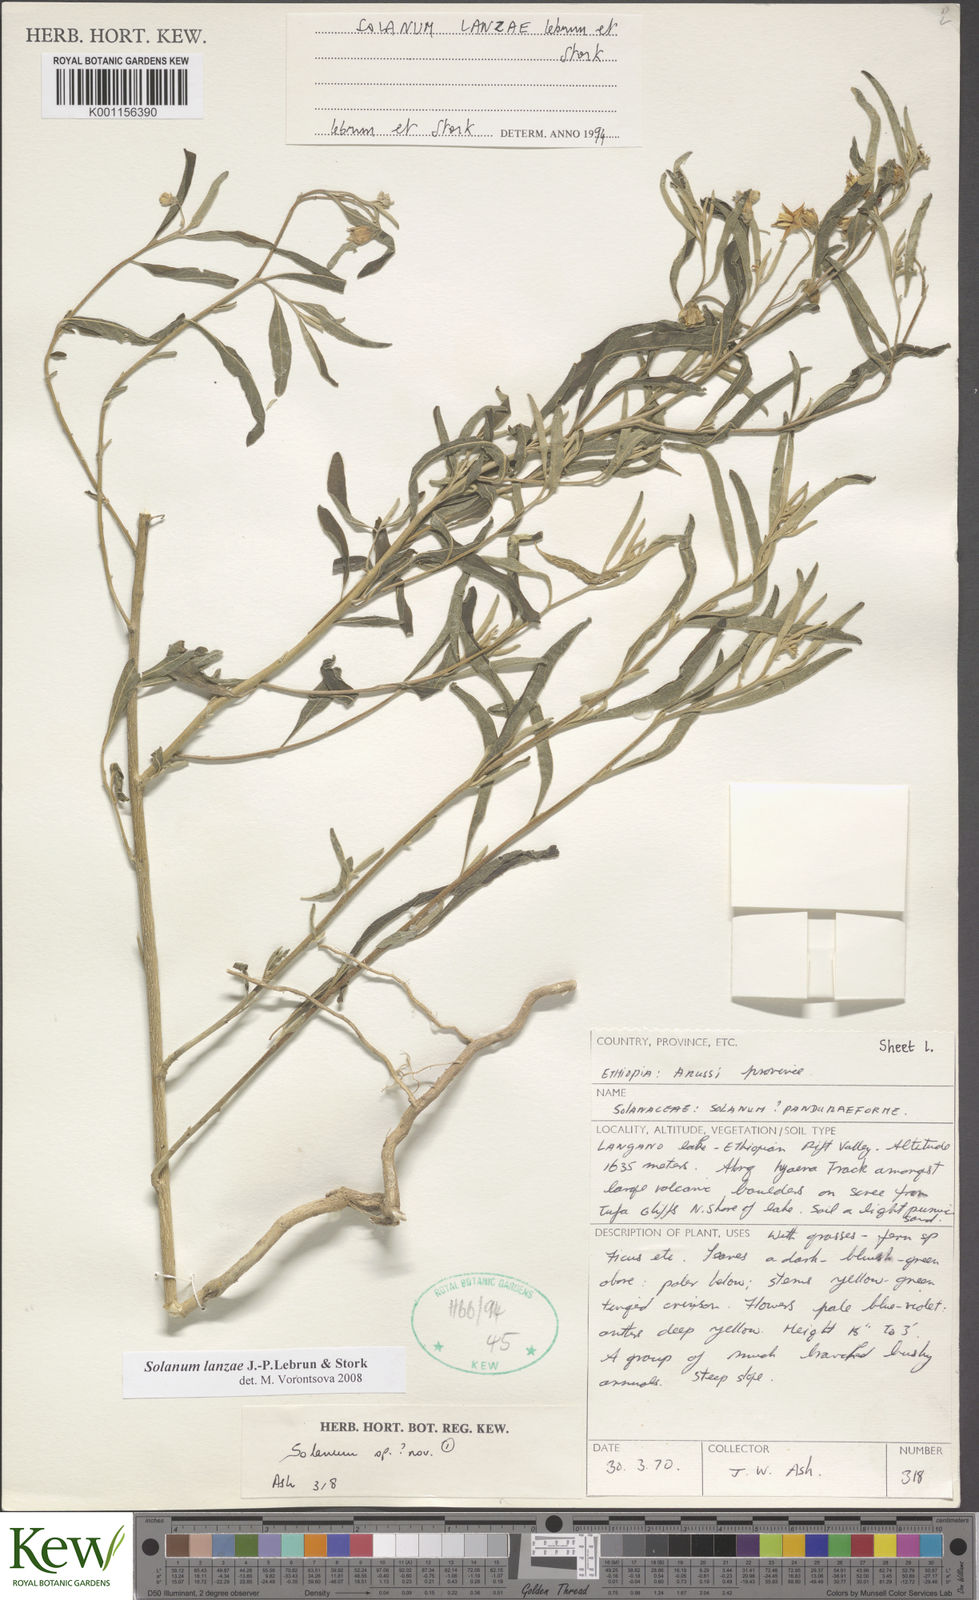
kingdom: Plantae
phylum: Tracheophyta
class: Magnoliopsida
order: Solanales
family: Solanaceae
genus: Solanum
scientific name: Solanum lanzae
